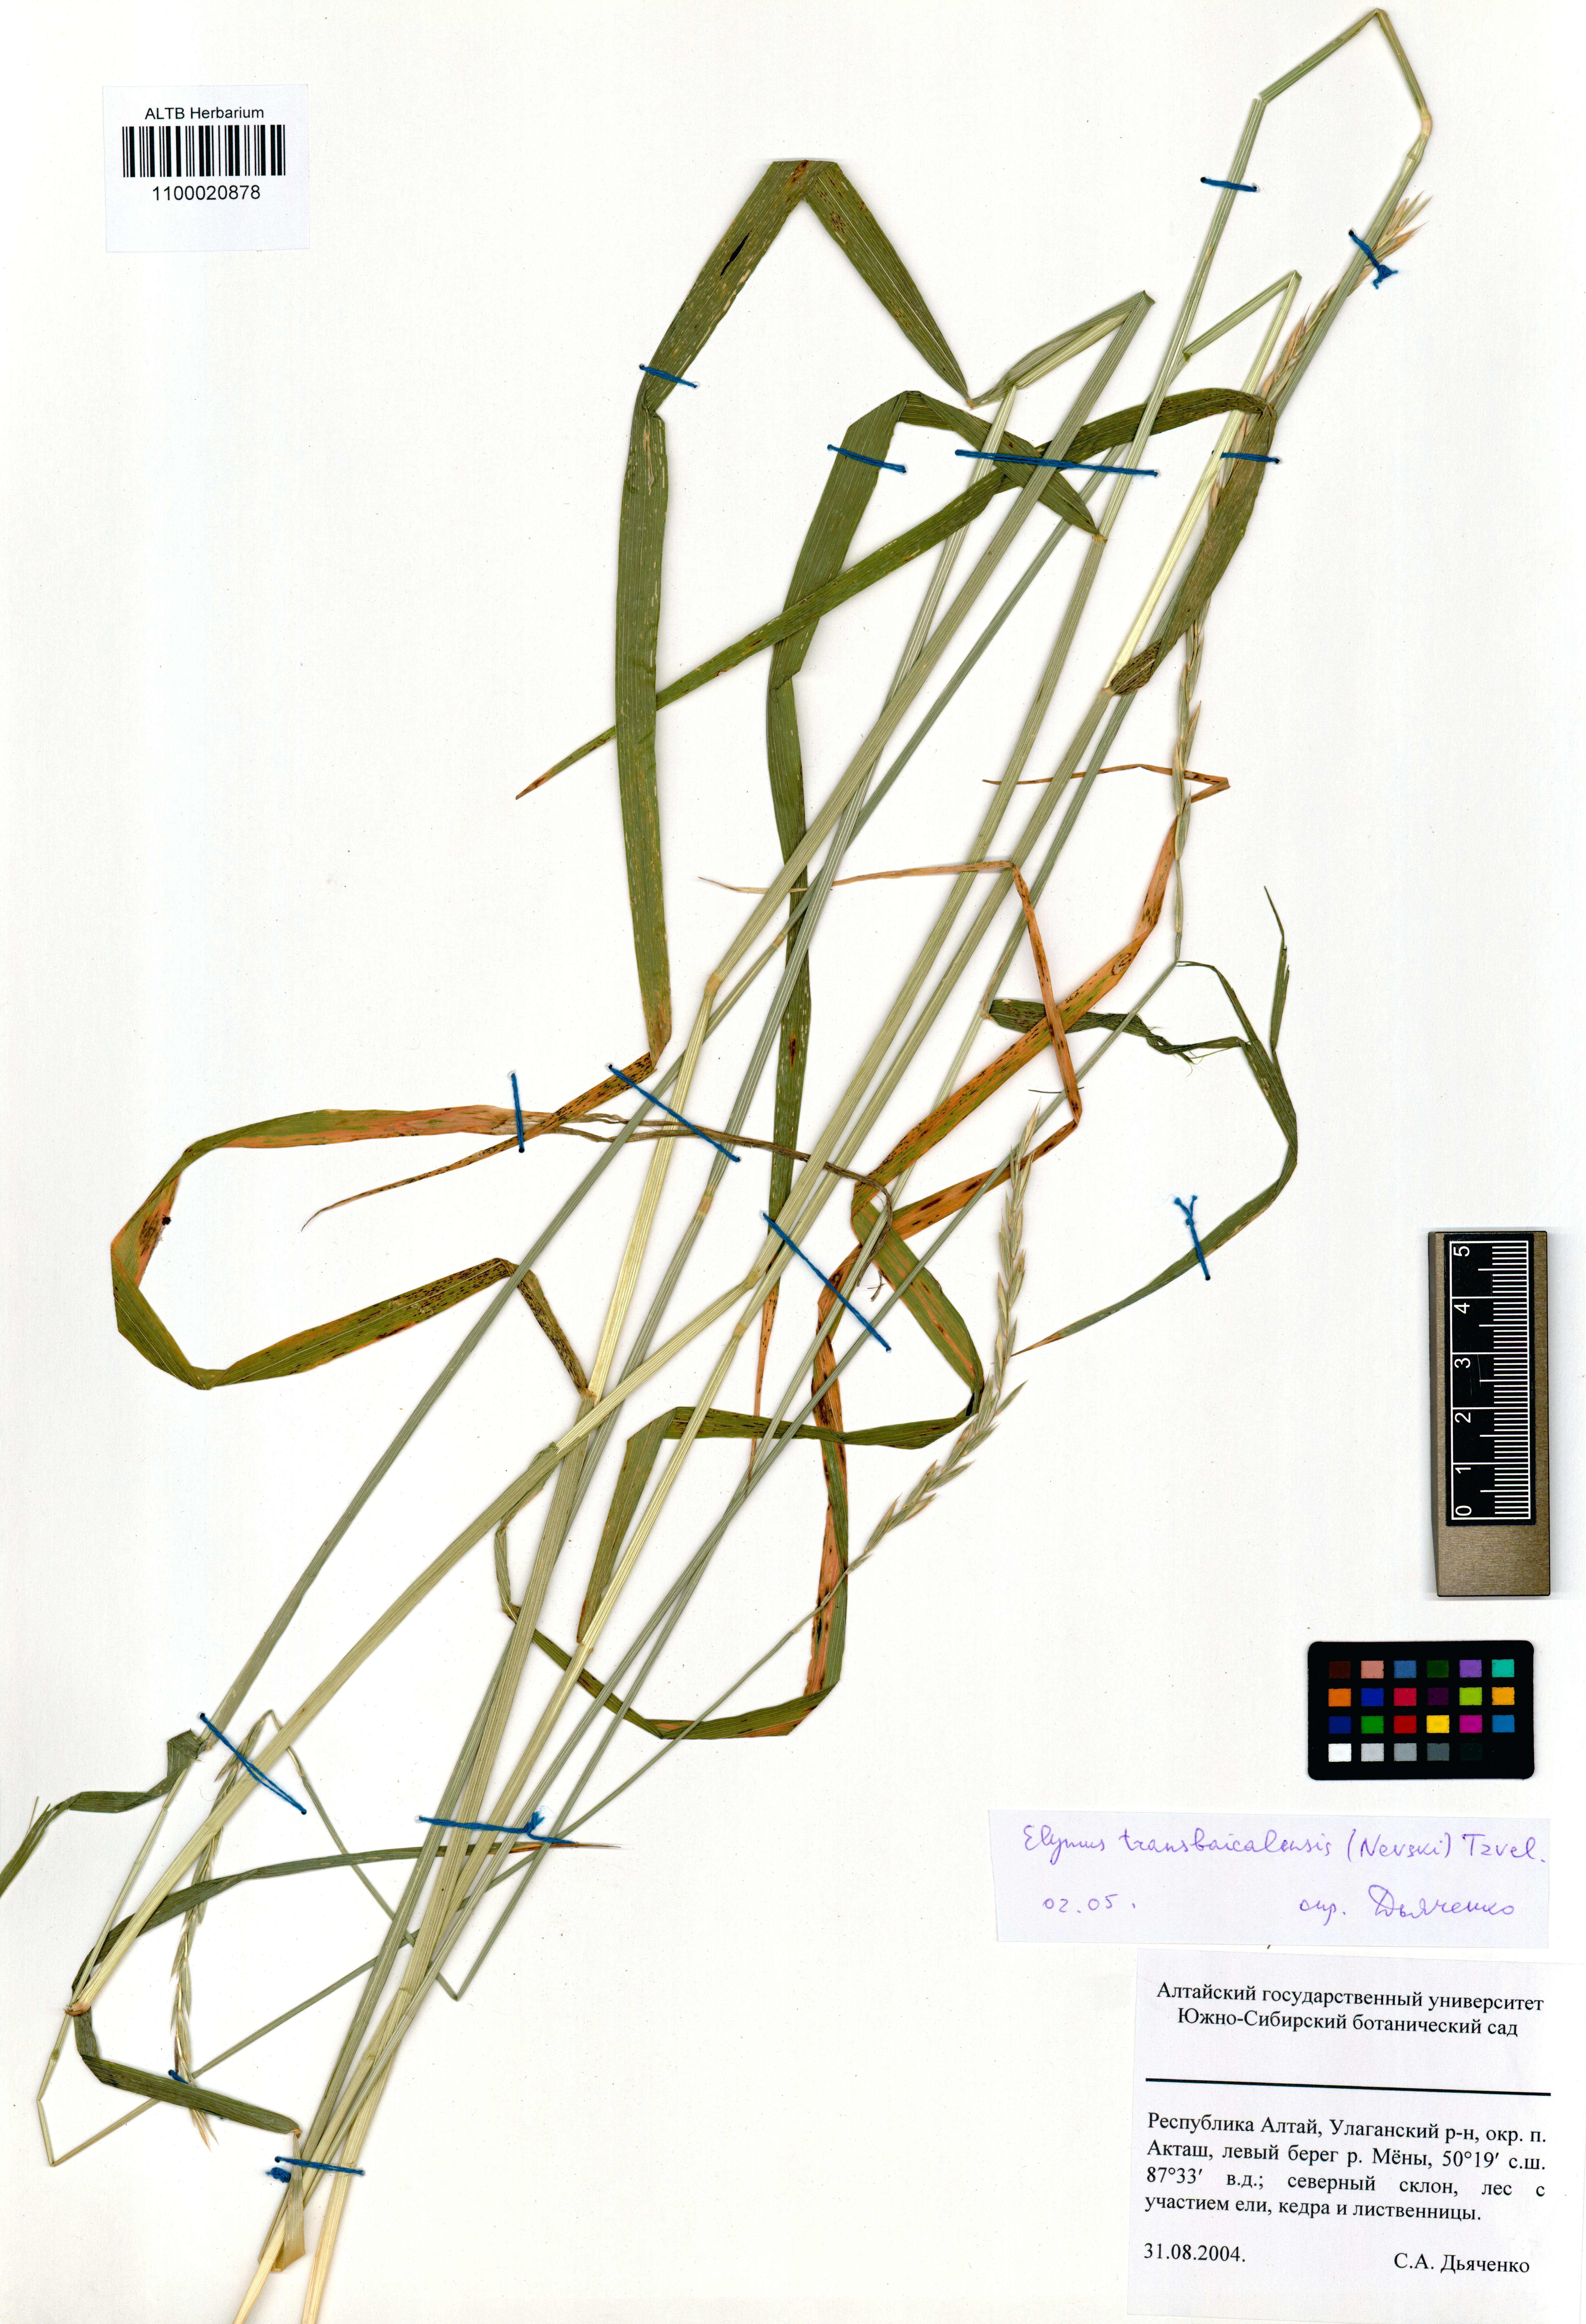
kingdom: Plantae
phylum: Tracheophyta
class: Liliopsida
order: Poales
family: Poaceae
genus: Elymus
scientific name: Elymus mutabilis
